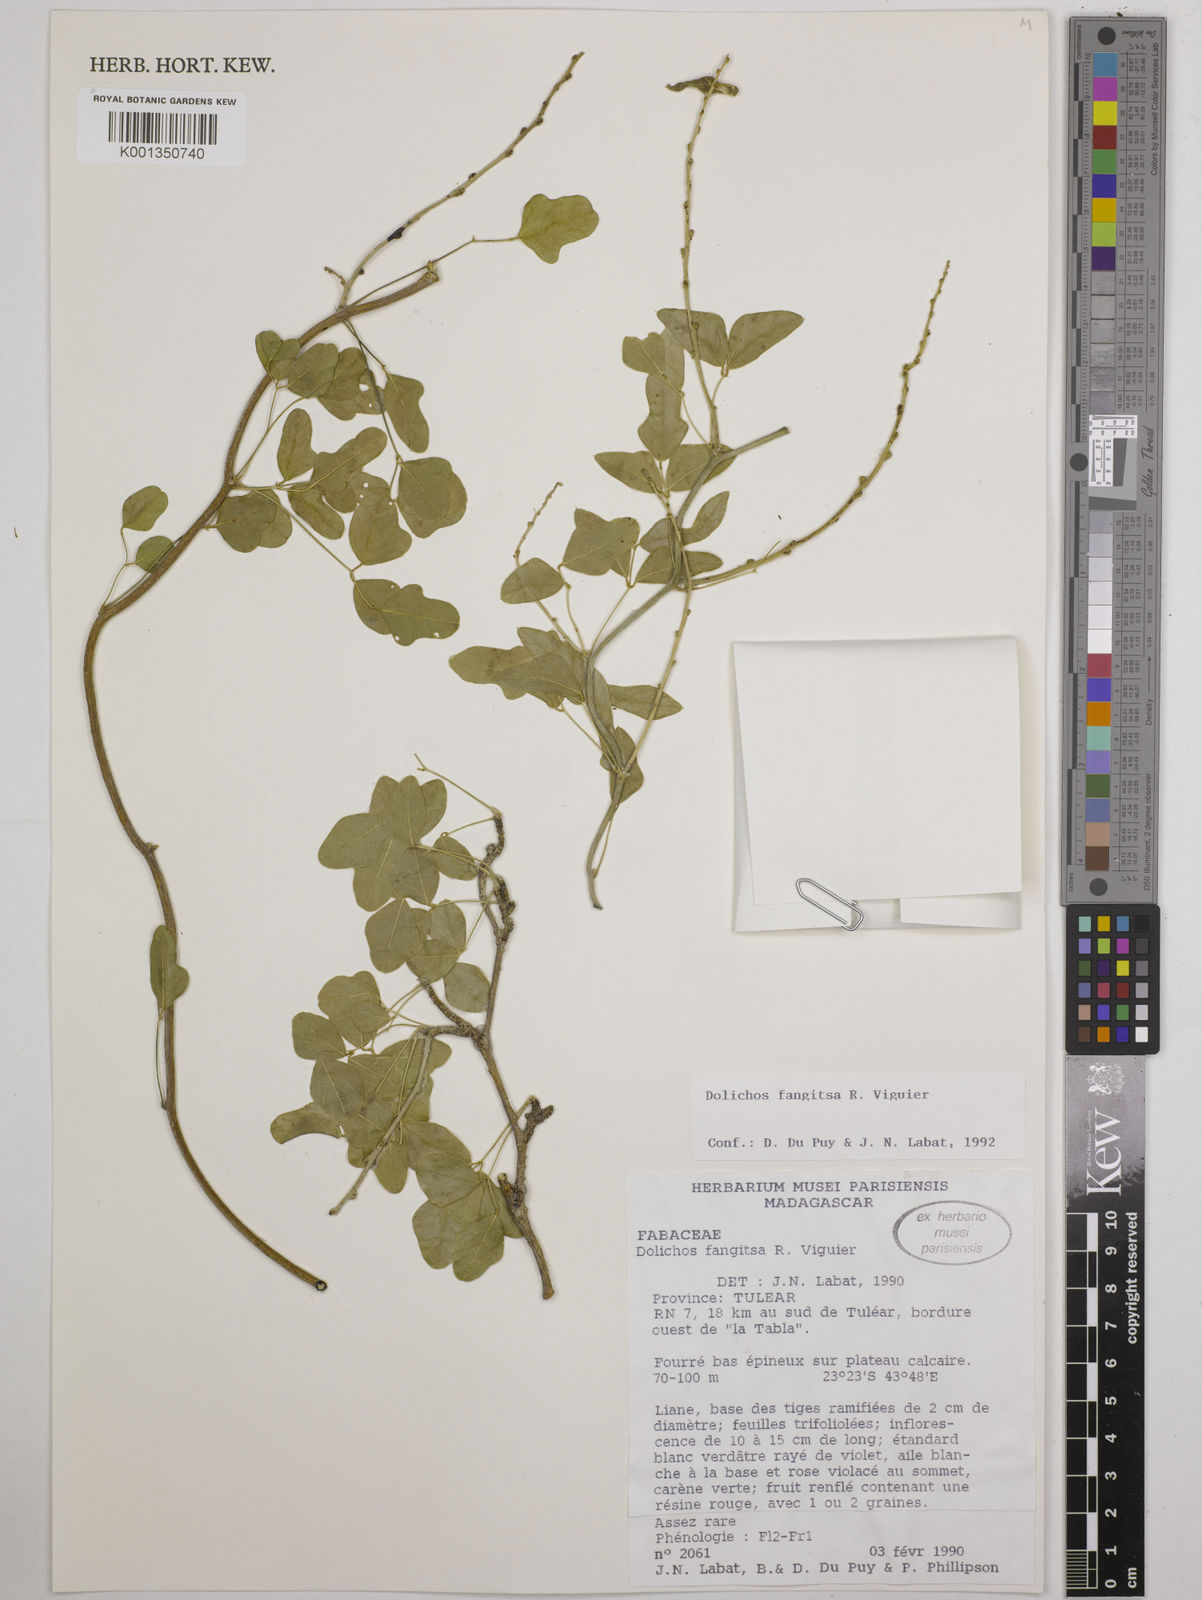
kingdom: Plantae
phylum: Tracheophyta
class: Magnoliopsida
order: Fabales
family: Fabaceae
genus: Dolichos
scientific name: Dolichos fangitsa
